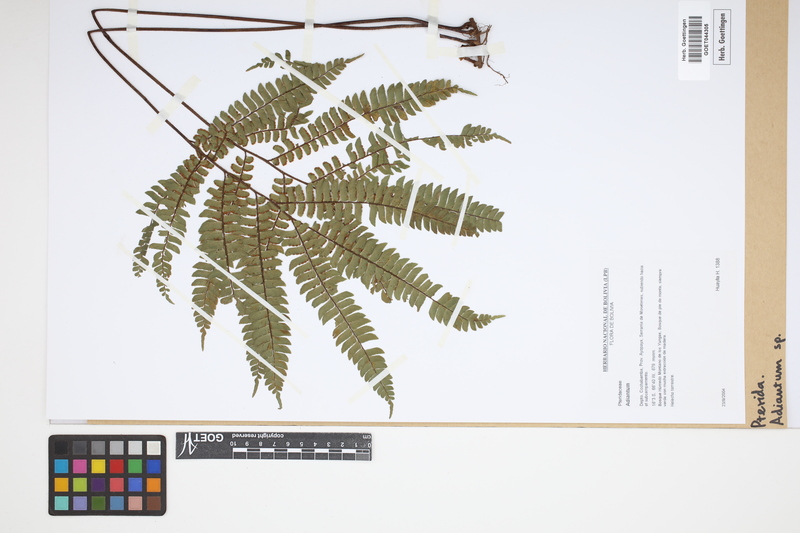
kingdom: Plantae
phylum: Tracheophyta
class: Polypodiopsida
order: Polypodiales
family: Pteridaceae
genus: Adiantum
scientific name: Adiantum
